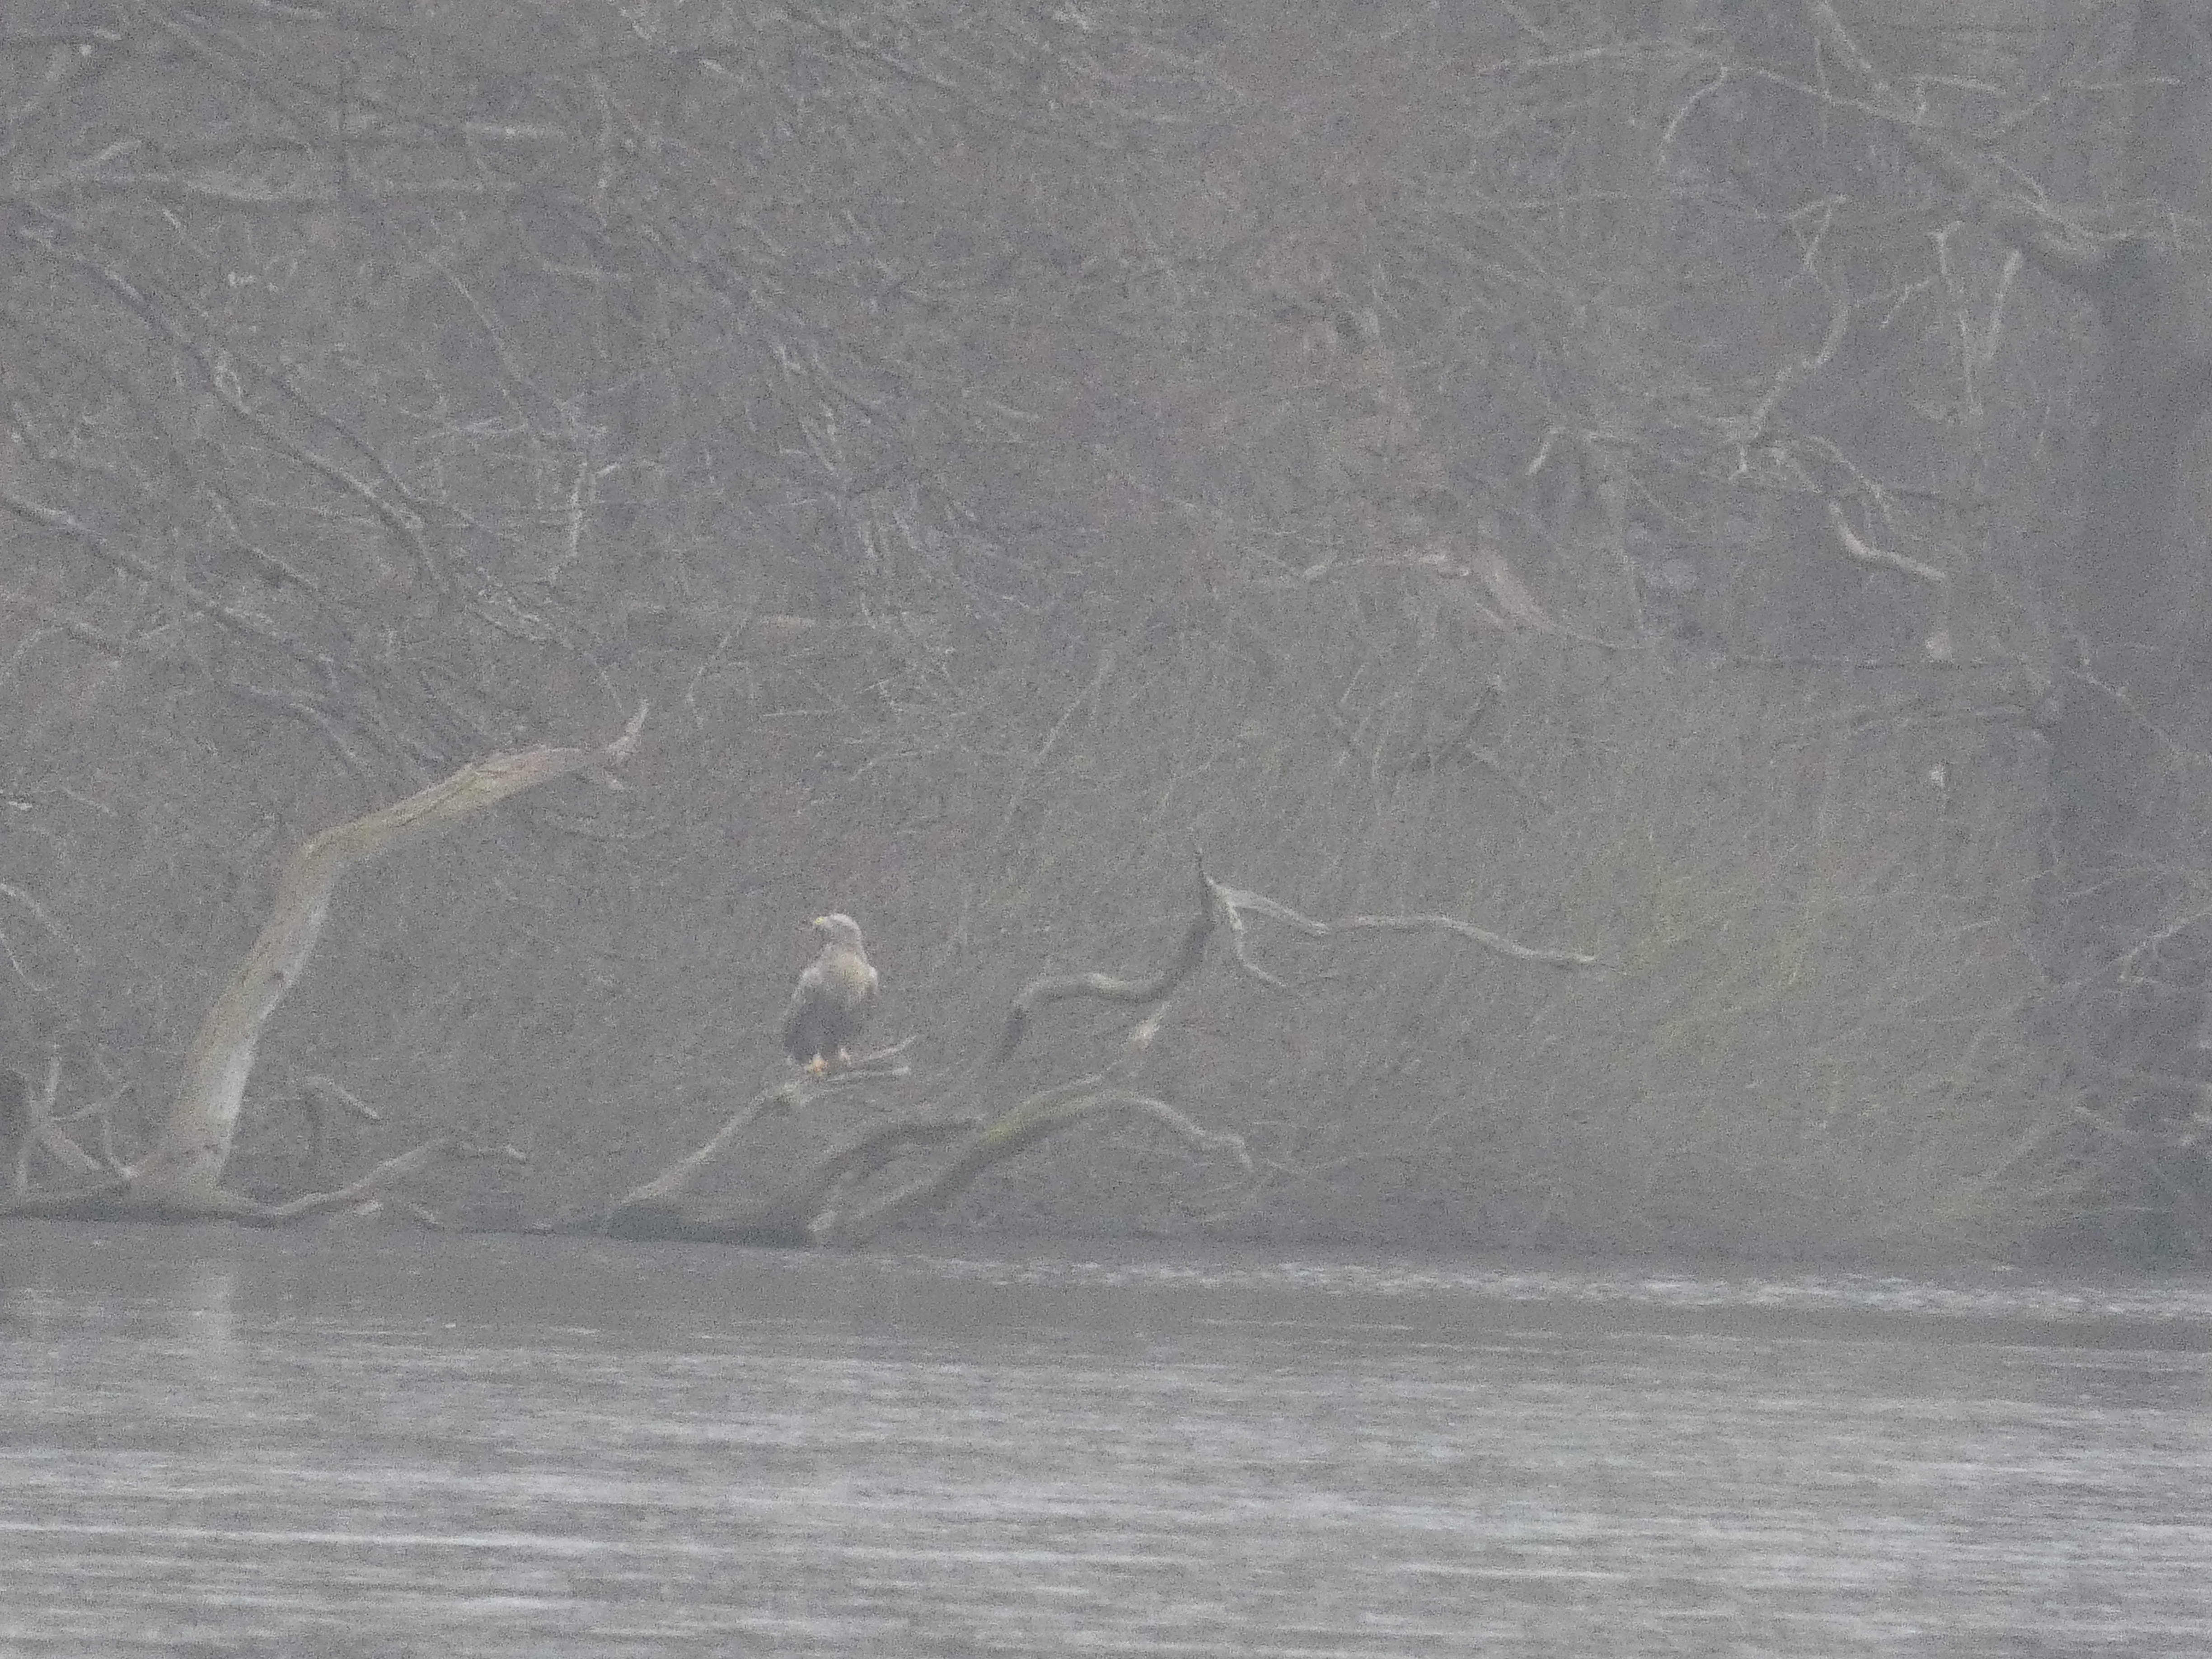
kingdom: Animalia
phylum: Chordata
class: Aves
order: Accipitriformes
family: Accipitridae
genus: Haliaeetus
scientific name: Haliaeetus albicilla
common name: Havørn
